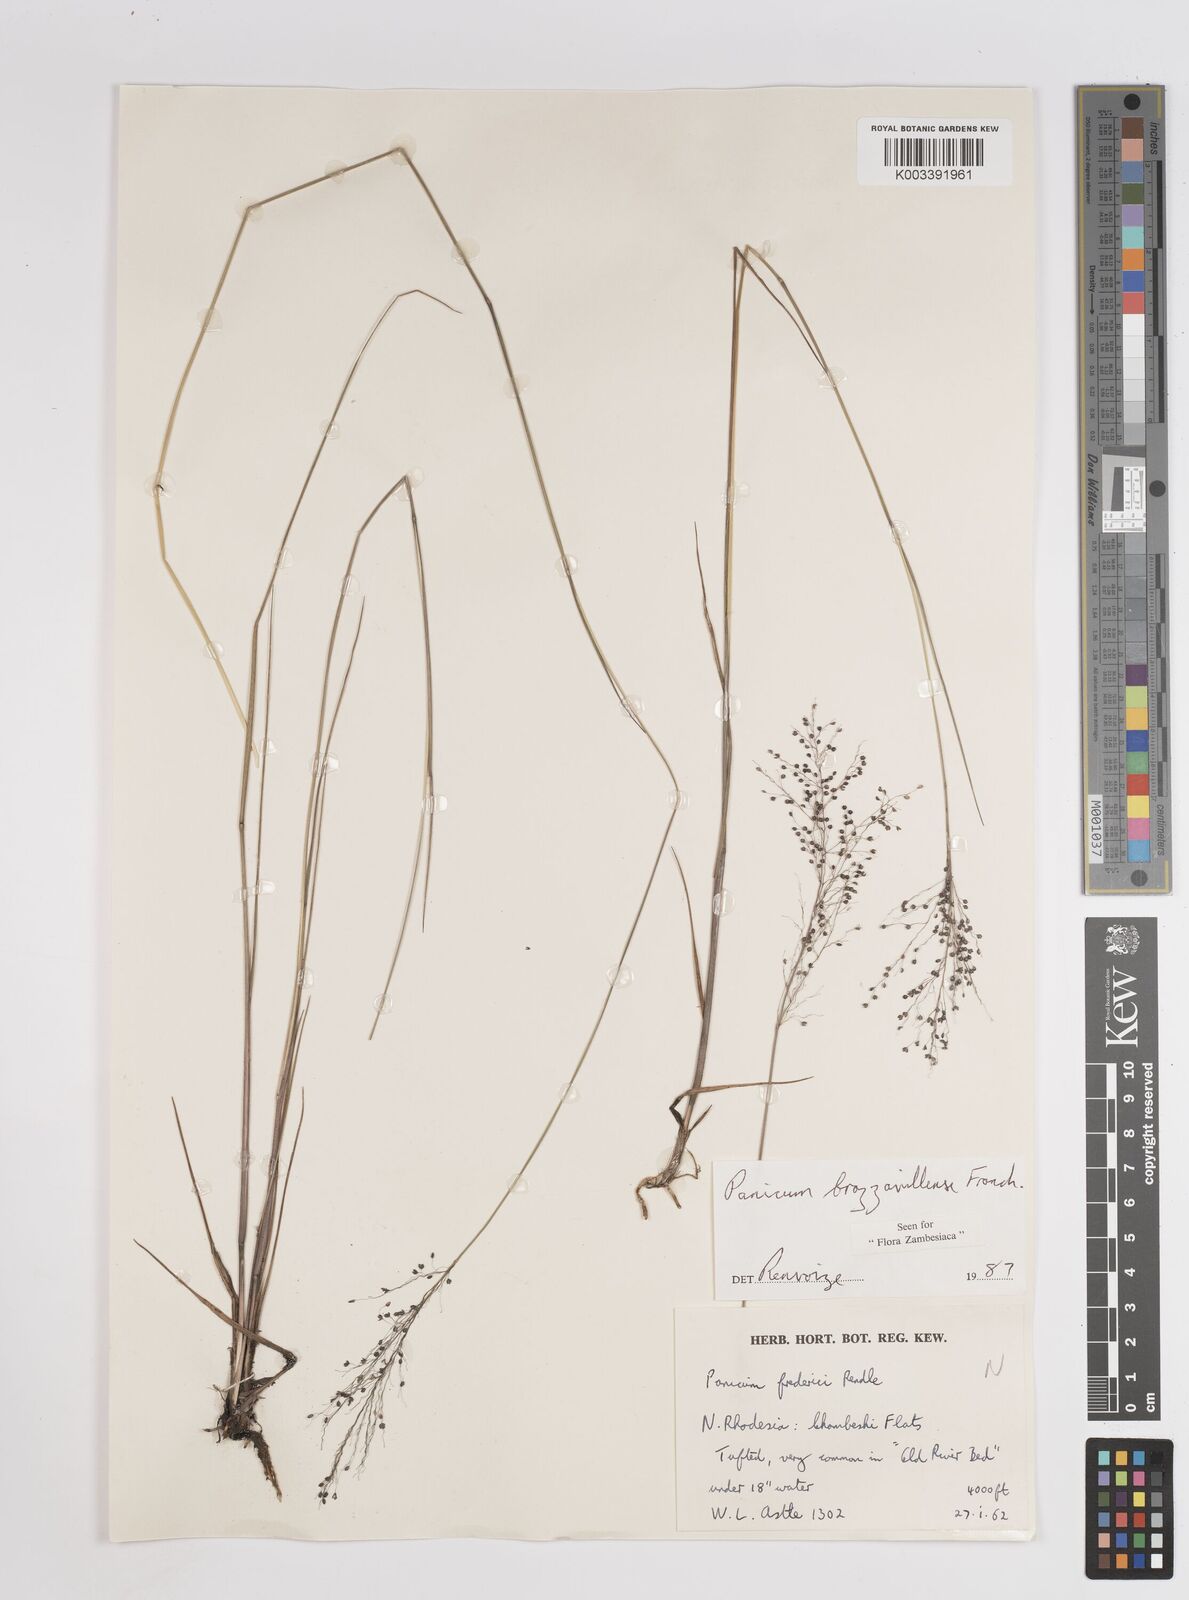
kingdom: Plantae
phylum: Tracheophyta
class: Liliopsida
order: Poales
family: Poaceae
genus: Trichanthecium
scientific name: Trichanthecium brazzavillense
